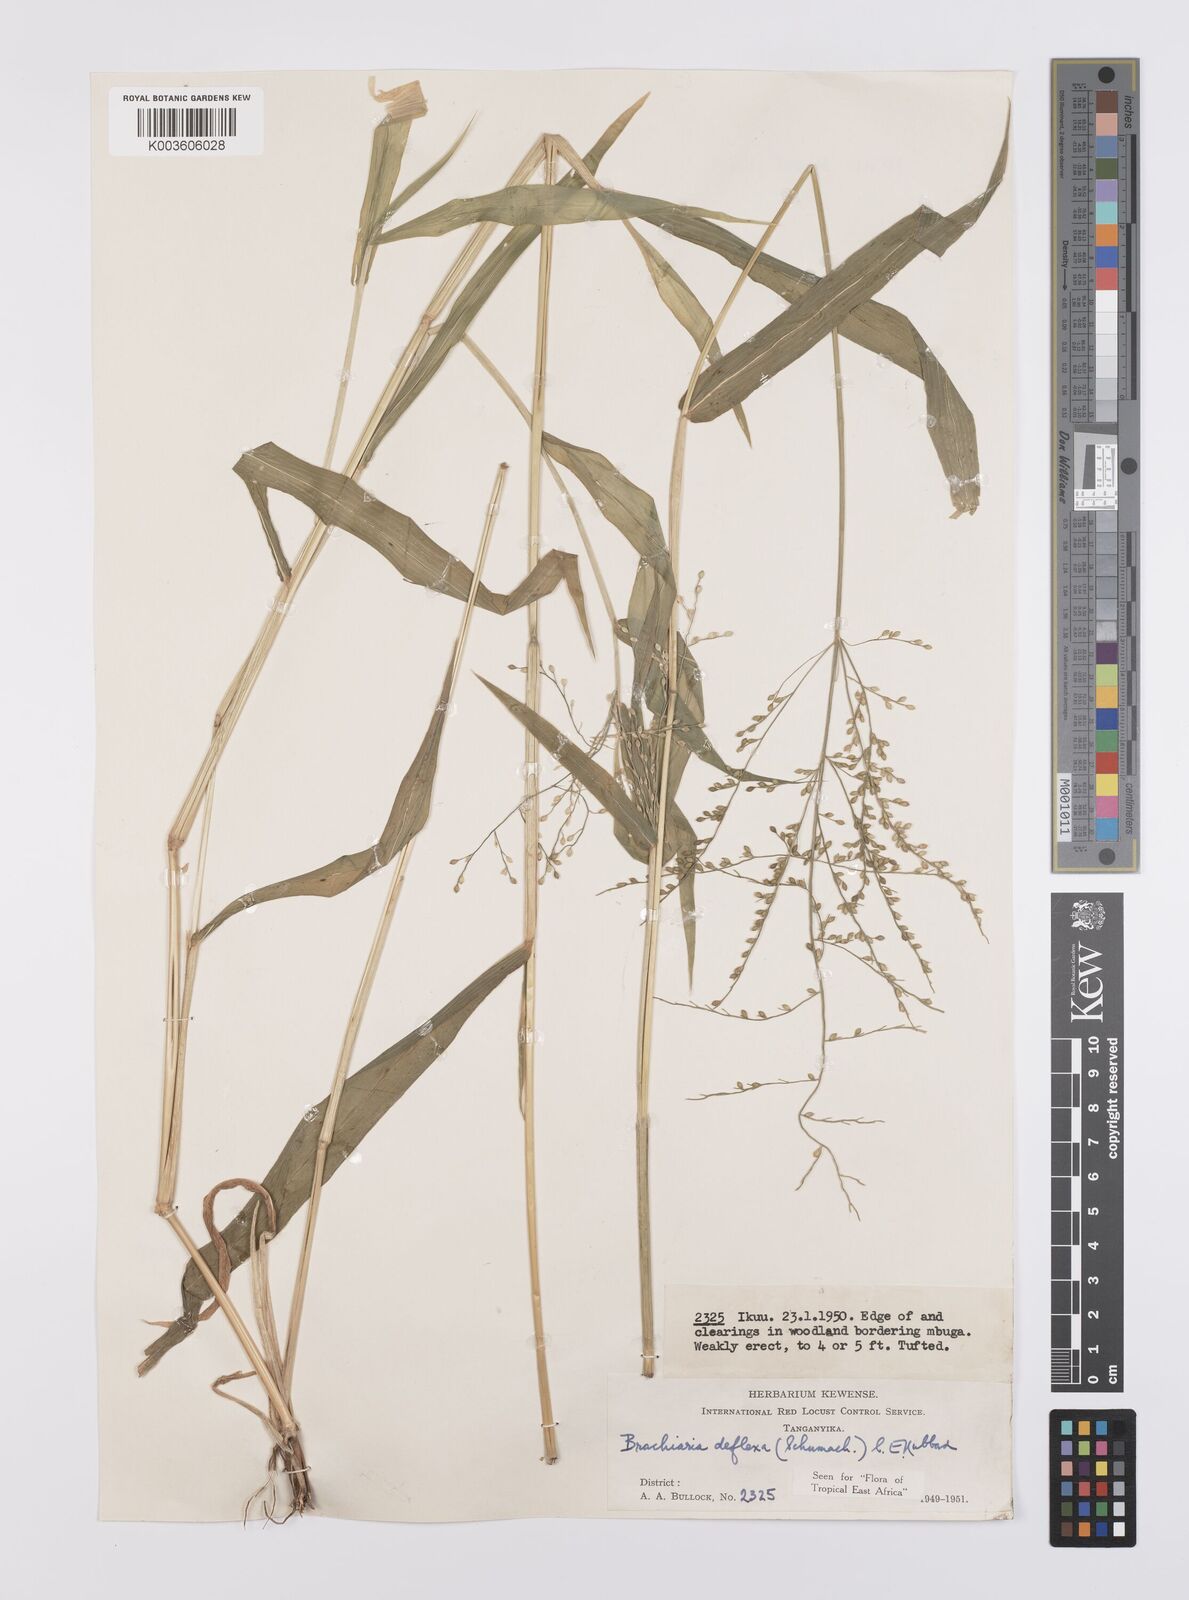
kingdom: Plantae
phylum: Tracheophyta
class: Liliopsida
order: Poales
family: Poaceae
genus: Urochloa
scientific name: Urochloa deflexa
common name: Guinea millet
